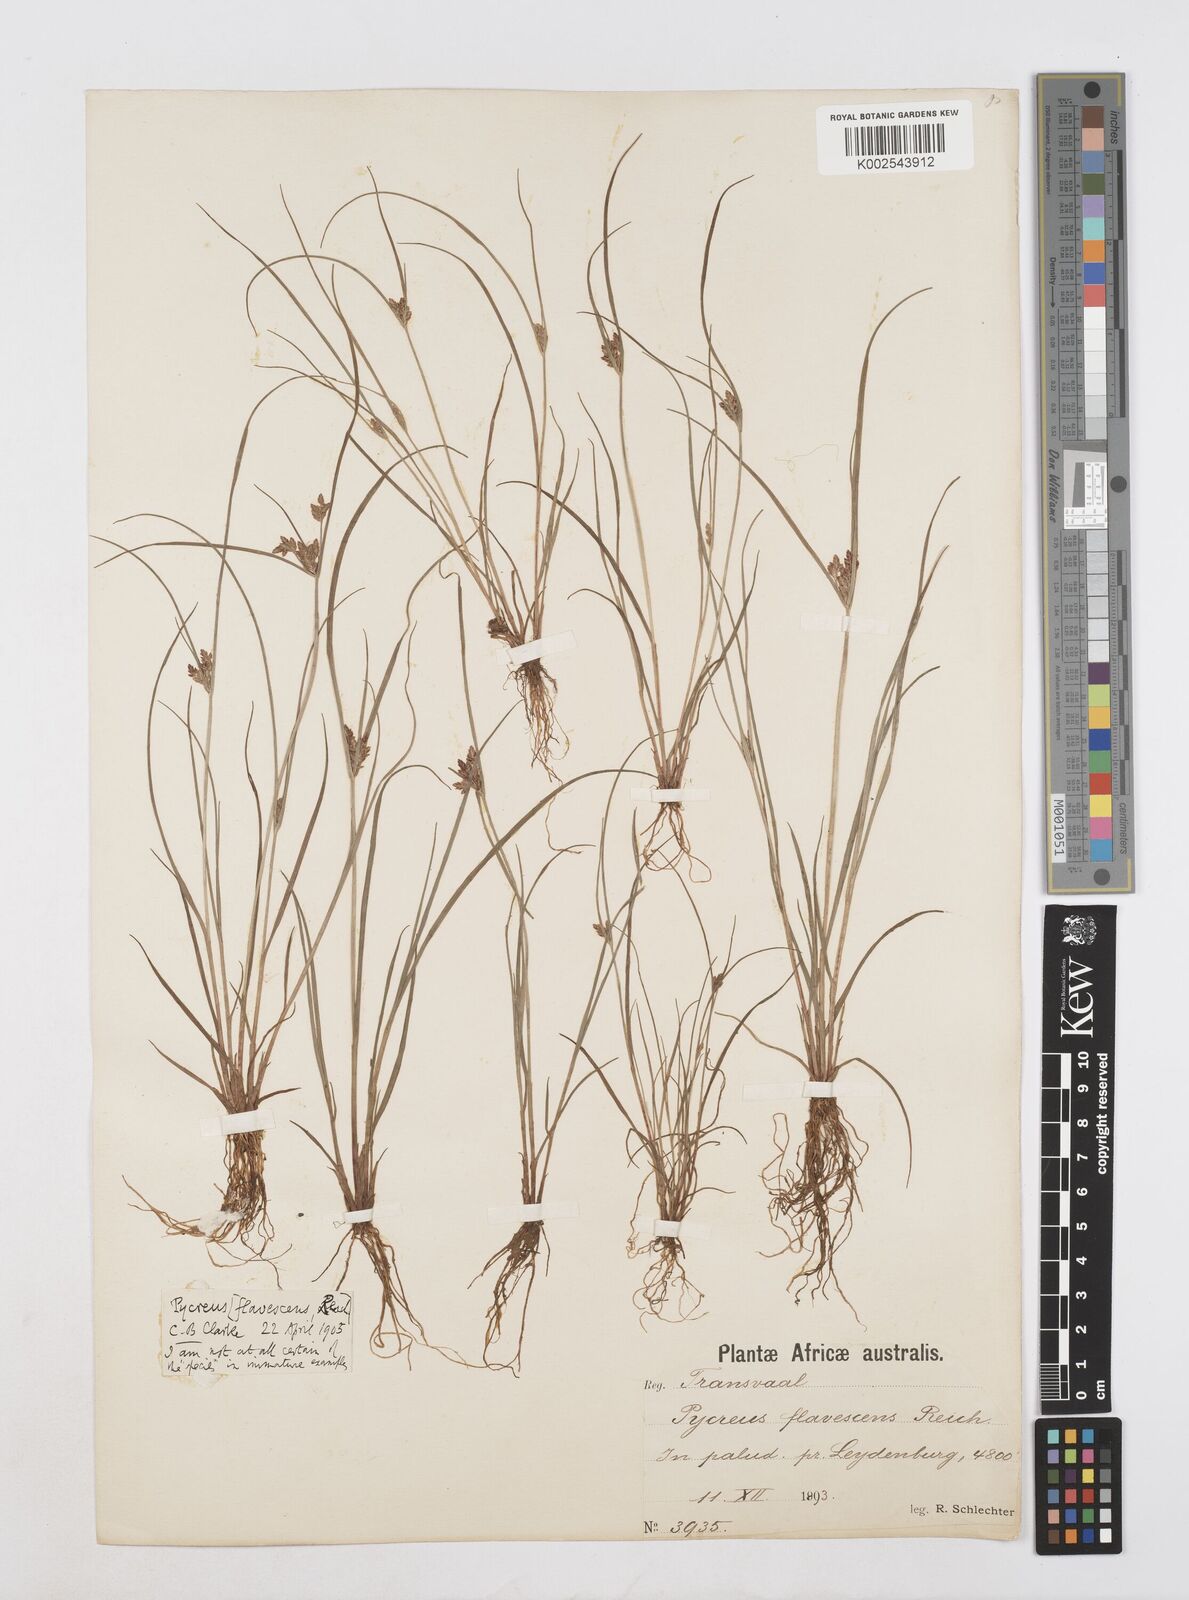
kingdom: Plantae
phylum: Tracheophyta
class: Liliopsida
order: Poales
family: Cyperaceae
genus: Cyperus
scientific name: Cyperus flavescens
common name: Yellow galingale
